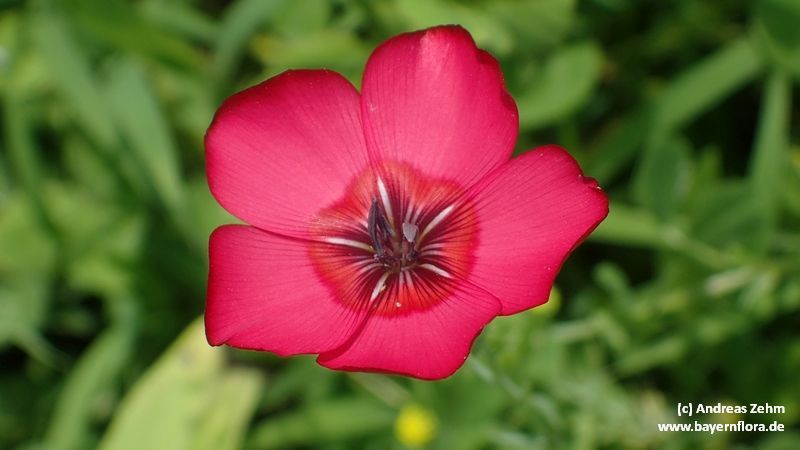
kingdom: Plantae
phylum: Tracheophyta
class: Magnoliopsida
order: Malpighiales
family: Linaceae
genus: Linum
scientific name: Linum grandiflorum
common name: Crimson flax
